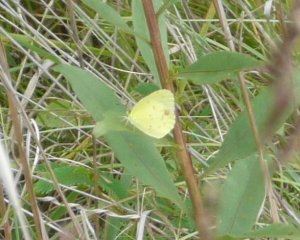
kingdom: Animalia
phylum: Arthropoda
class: Insecta
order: Lepidoptera
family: Pieridae
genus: Pyrisitia
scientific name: Pyrisitia lisa
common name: Little Yellow
